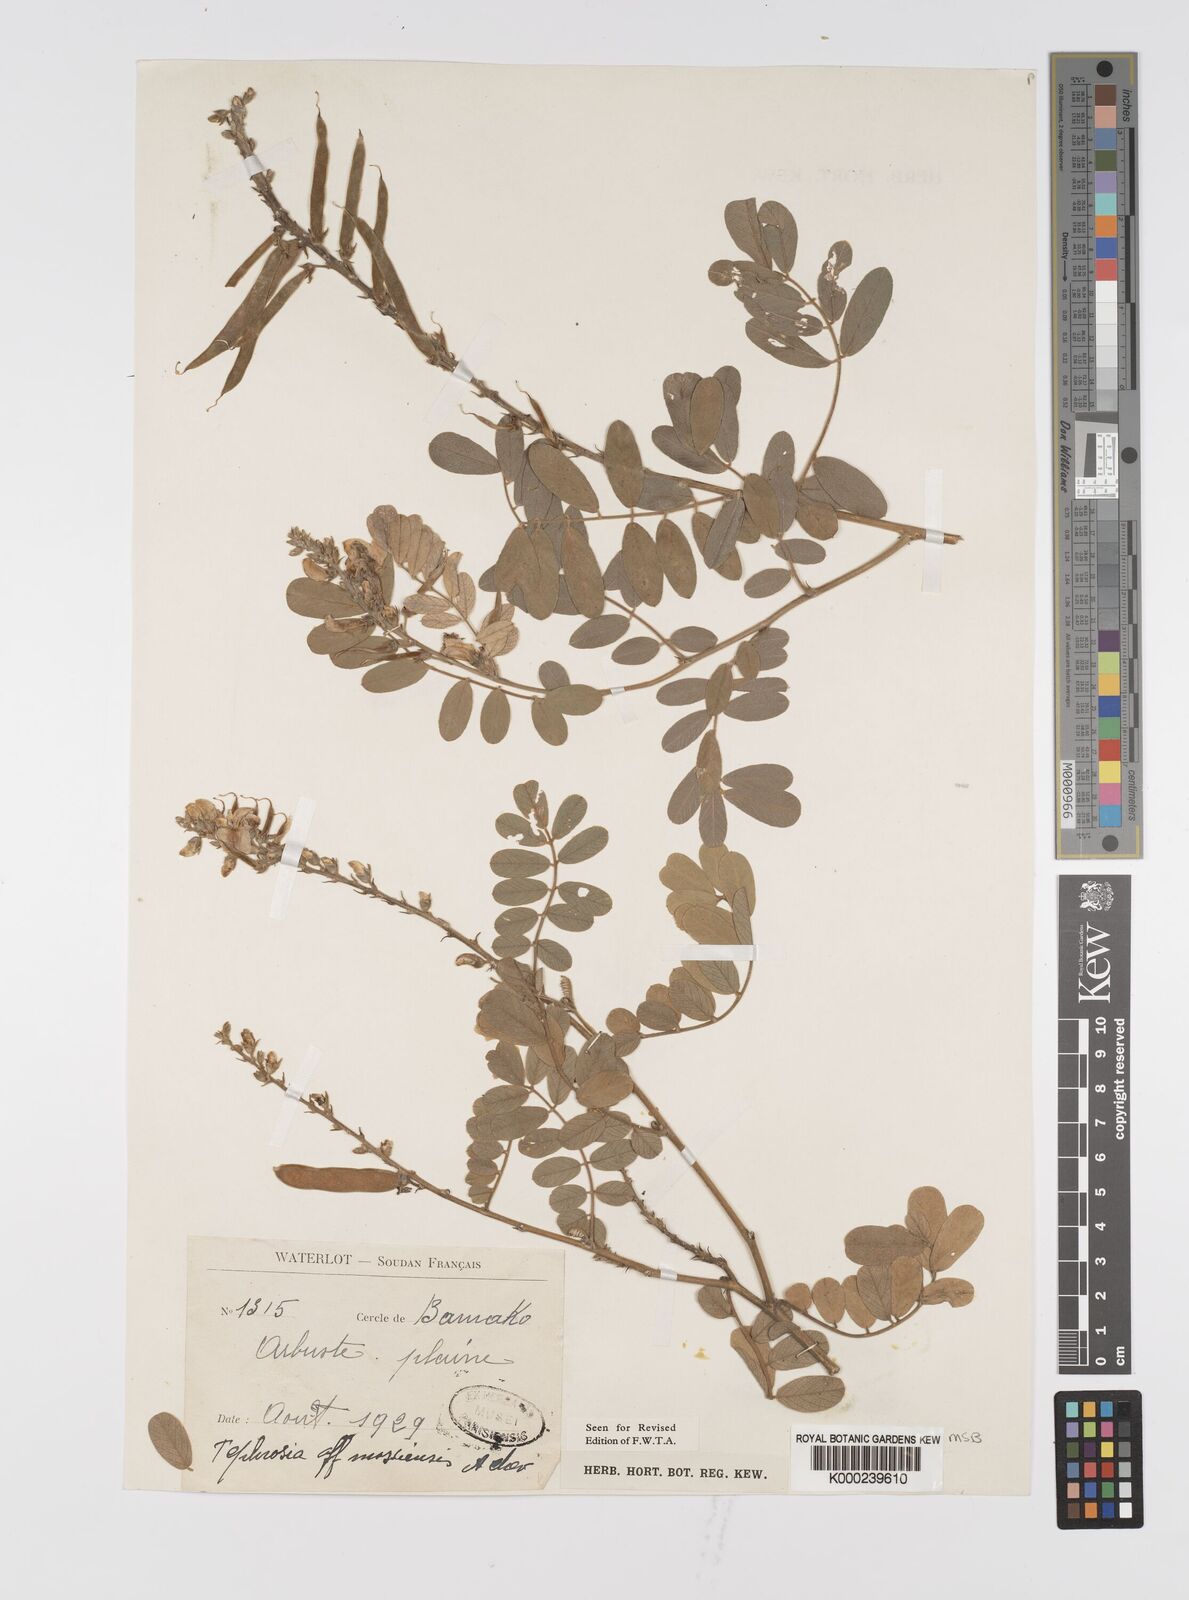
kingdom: Plantae
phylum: Tracheophyta
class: Magnoliopsida
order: Fabales
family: Fabaceae
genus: Tephrosia
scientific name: Tephrosia mossiensis
